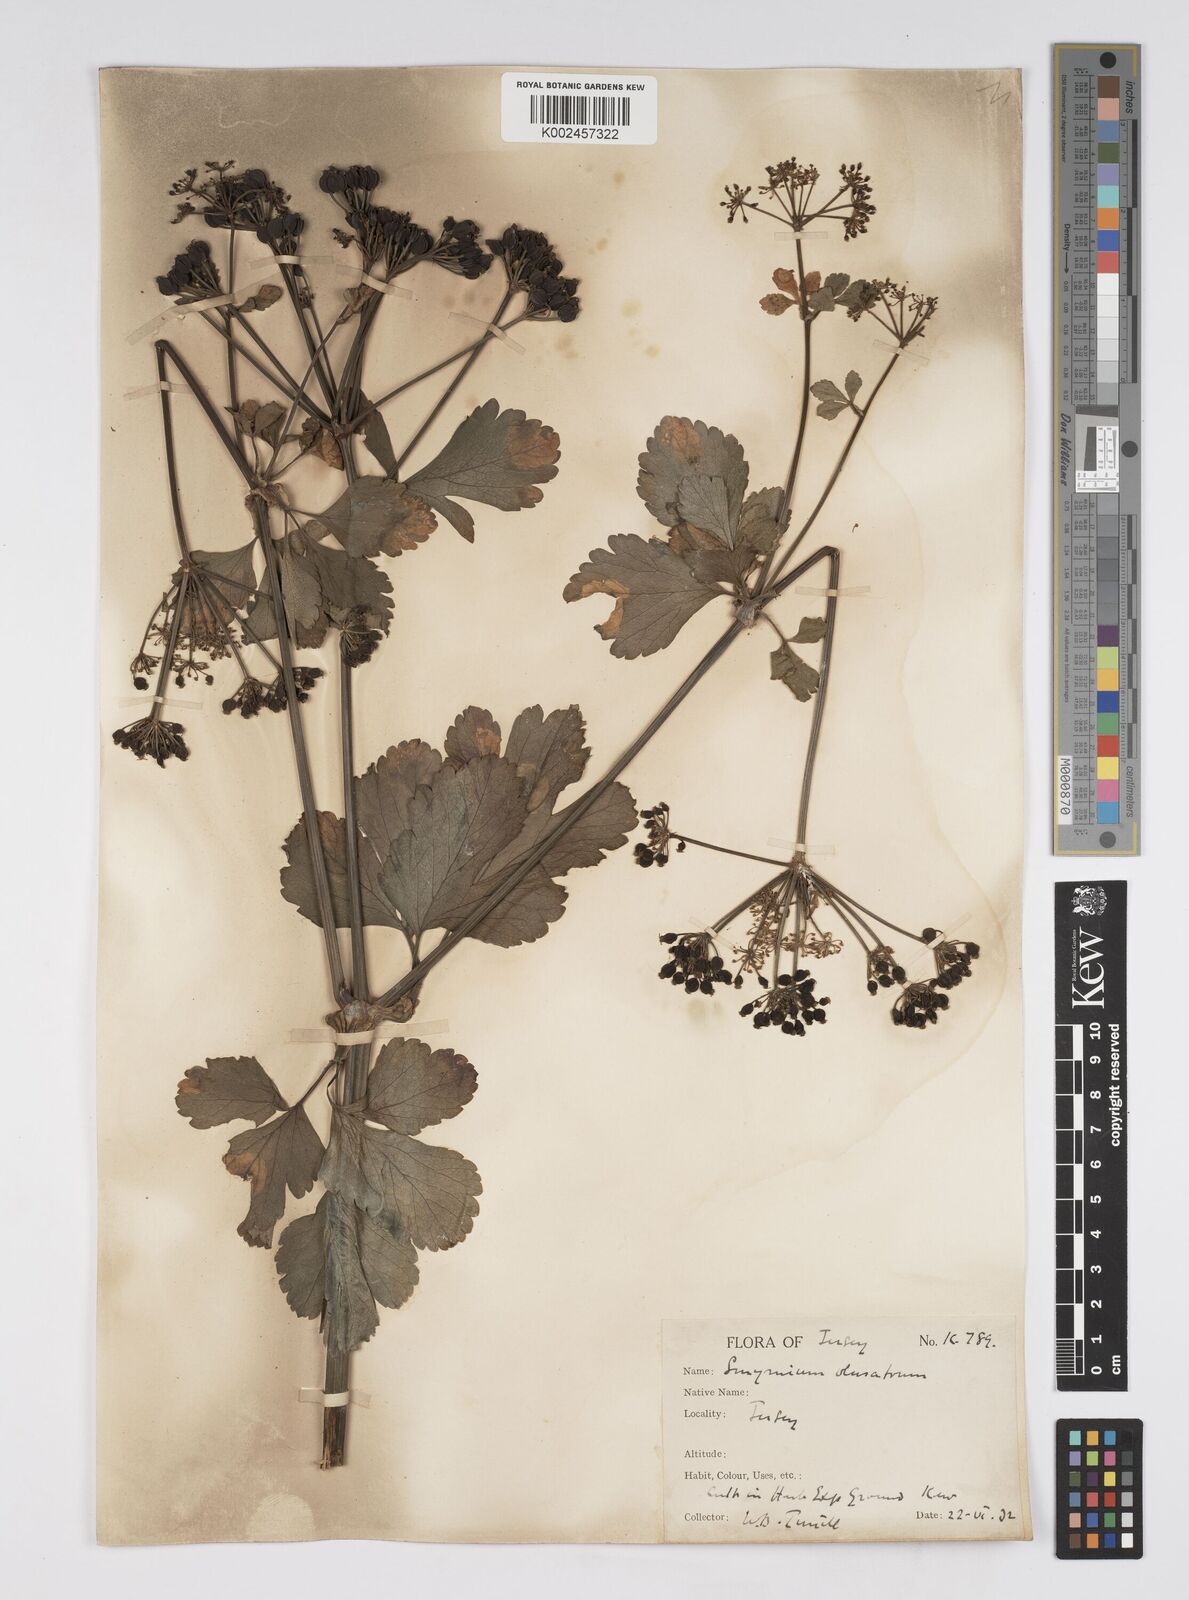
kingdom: Plantae
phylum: Tracheophyta
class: Magnoliopsida
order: Apiales
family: Apiaceae
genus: Smyrnium
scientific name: Smyrnium olusatrum
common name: Alexanders
